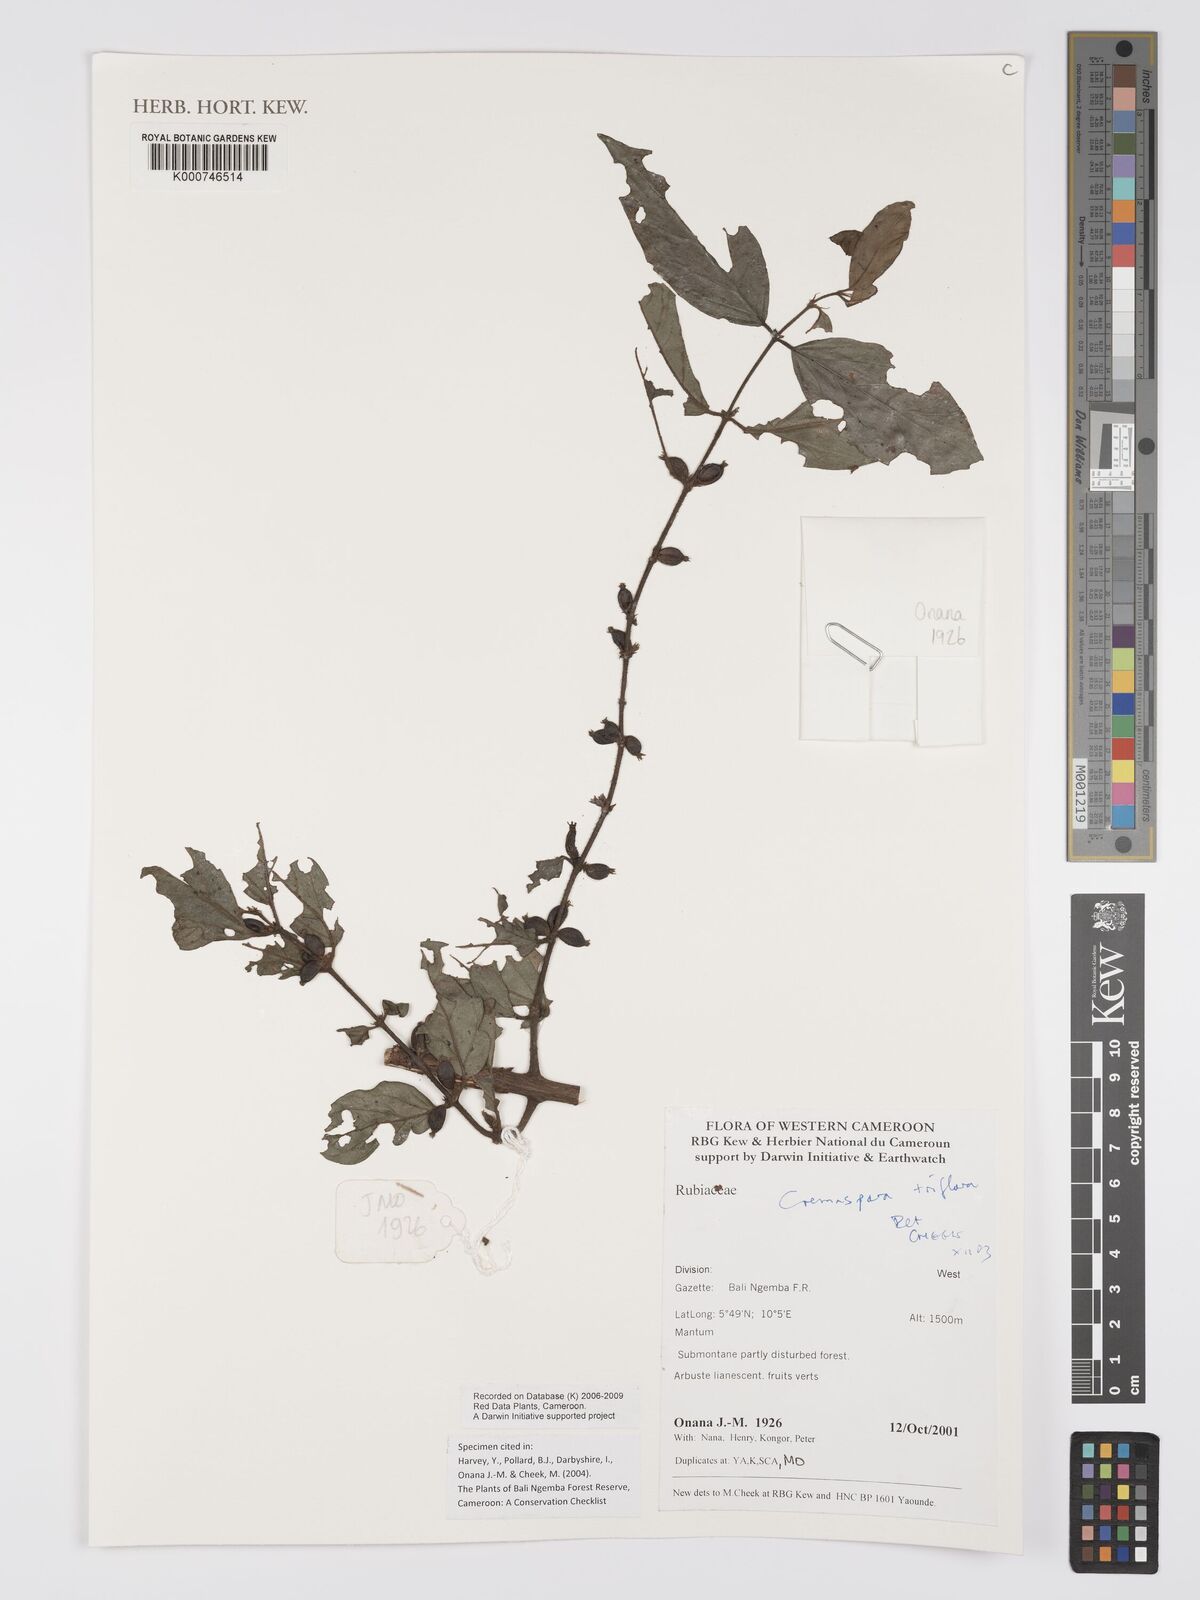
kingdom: Plantae
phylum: Tracheophyta
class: Magnoliopsida
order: Gentianales
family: Rubiaceae
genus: Cremaspora
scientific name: Cremaspora triflora
